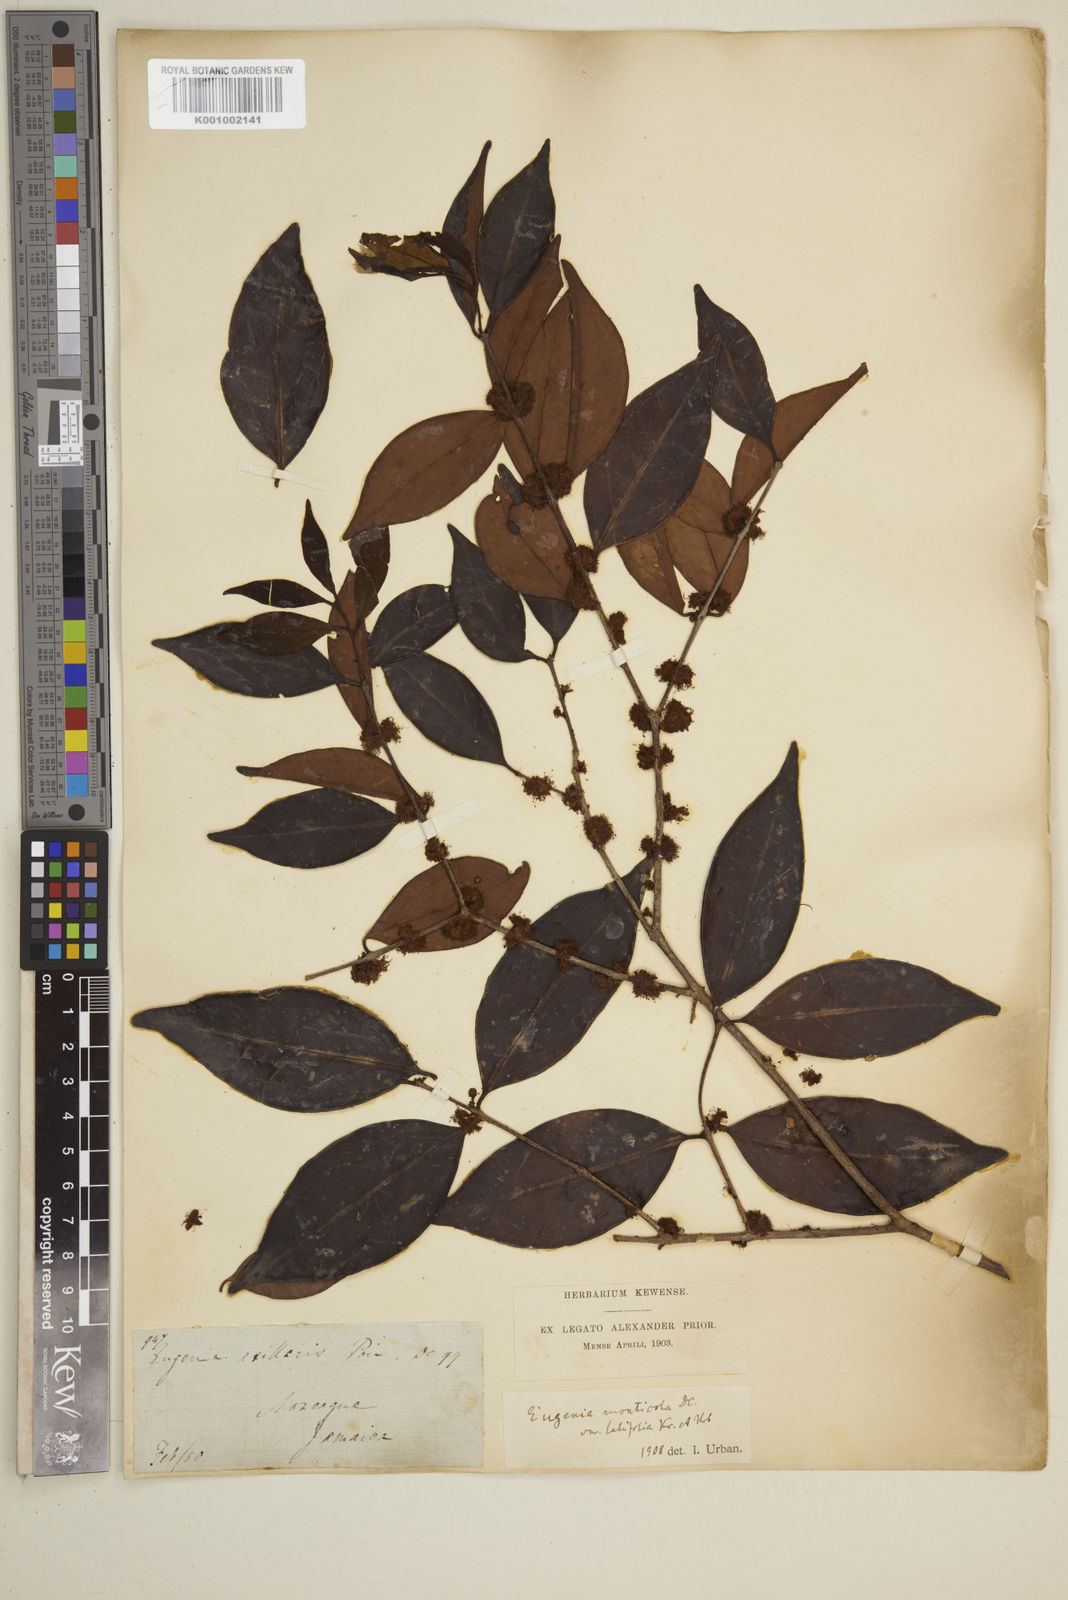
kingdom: Plantae
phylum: Tracheophyta
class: Magnoliopsida
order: Myrtales
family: Myrtaceae
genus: Eugenia
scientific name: Eugenia monticola
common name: Birds berry
